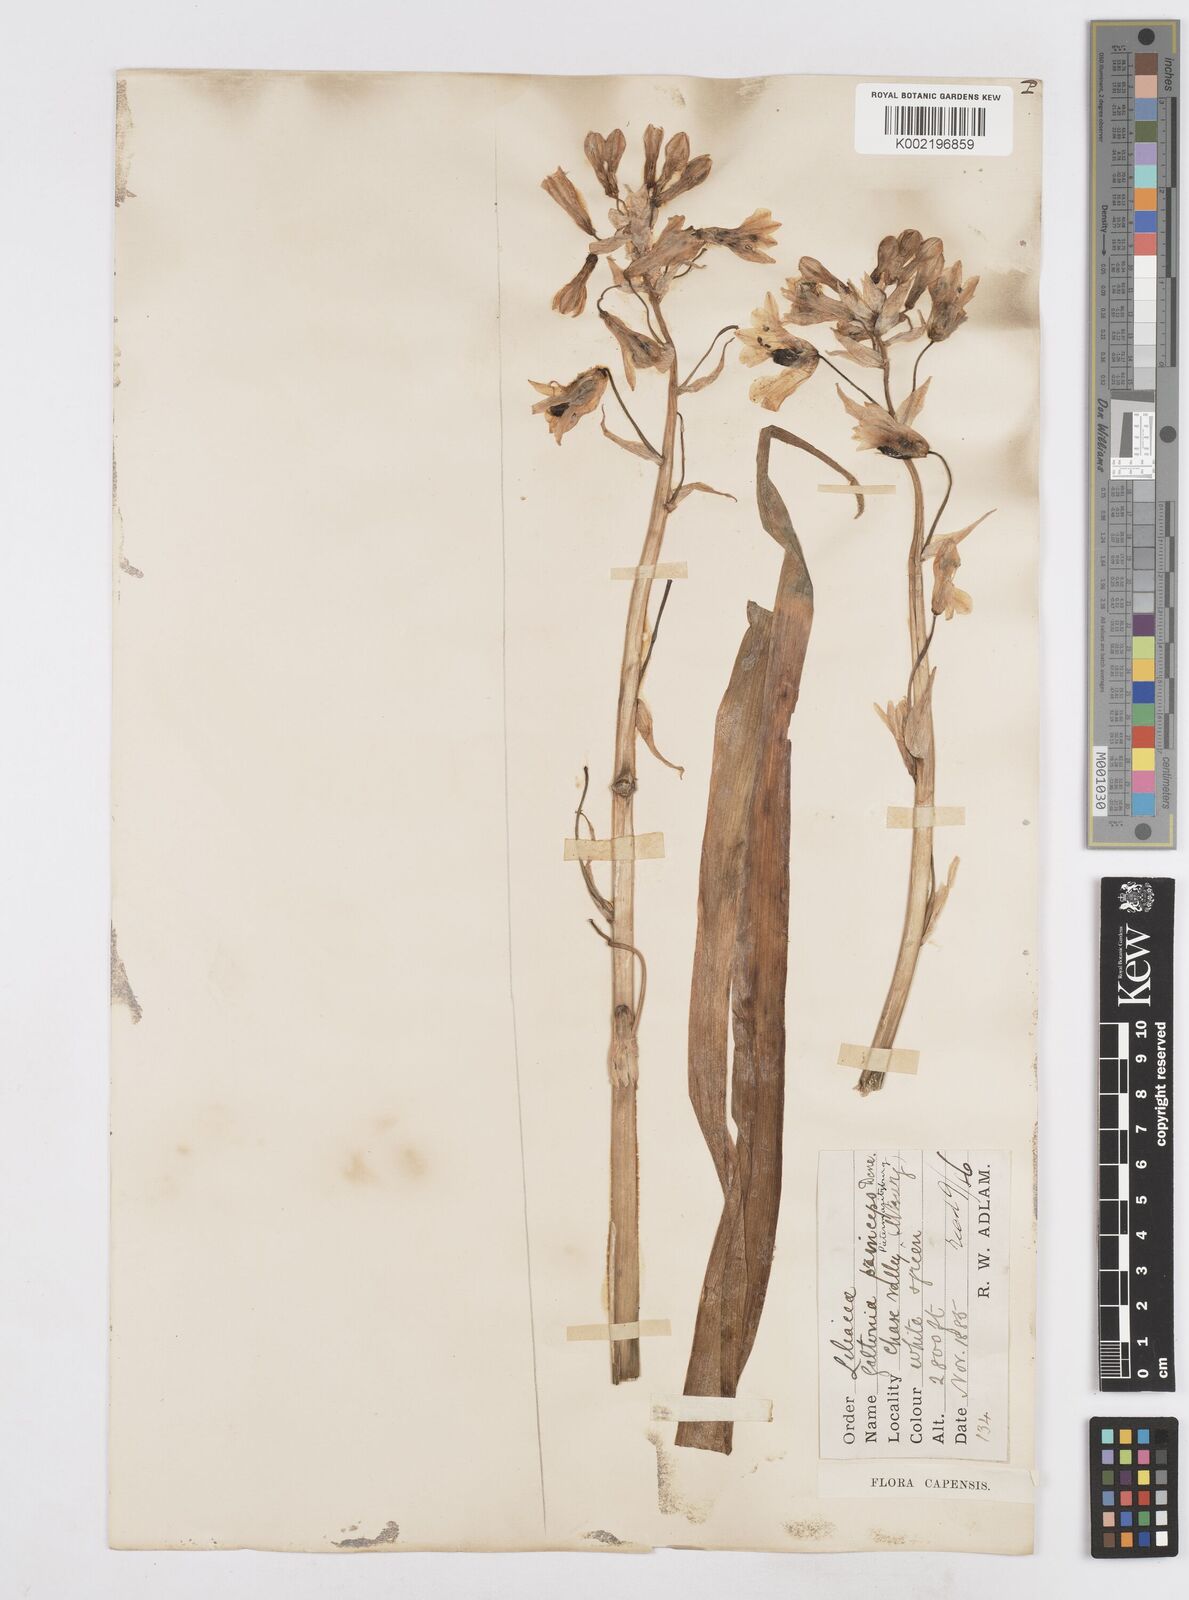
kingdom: Plantae
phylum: Tracheophyta
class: Liliopsida
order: Asparagales
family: Asparagaceae
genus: Ornithogalum
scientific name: Ornithogalum princeps
